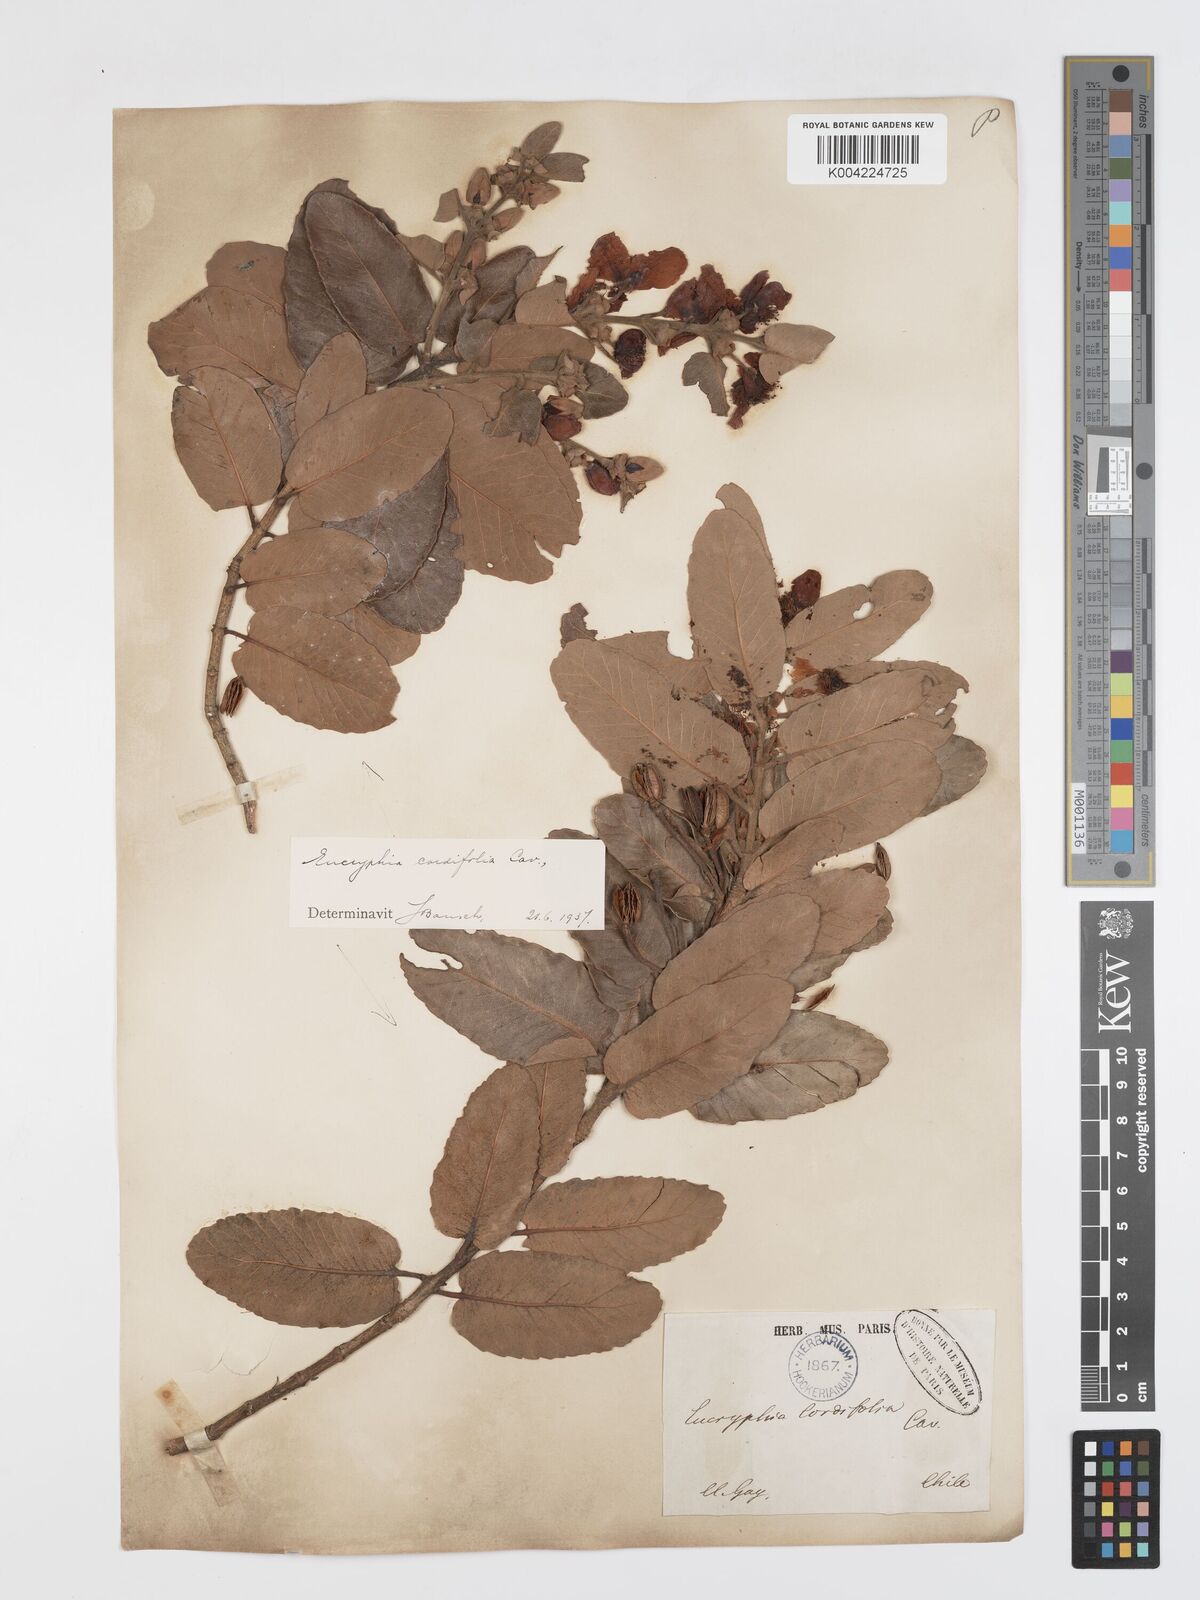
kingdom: Plantae
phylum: Tracheophyta
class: Magnoliopsida
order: Oxalidales
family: Cunoniaceae
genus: Eucryphia
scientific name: Eucryphia cordifolia
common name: Ulmo
